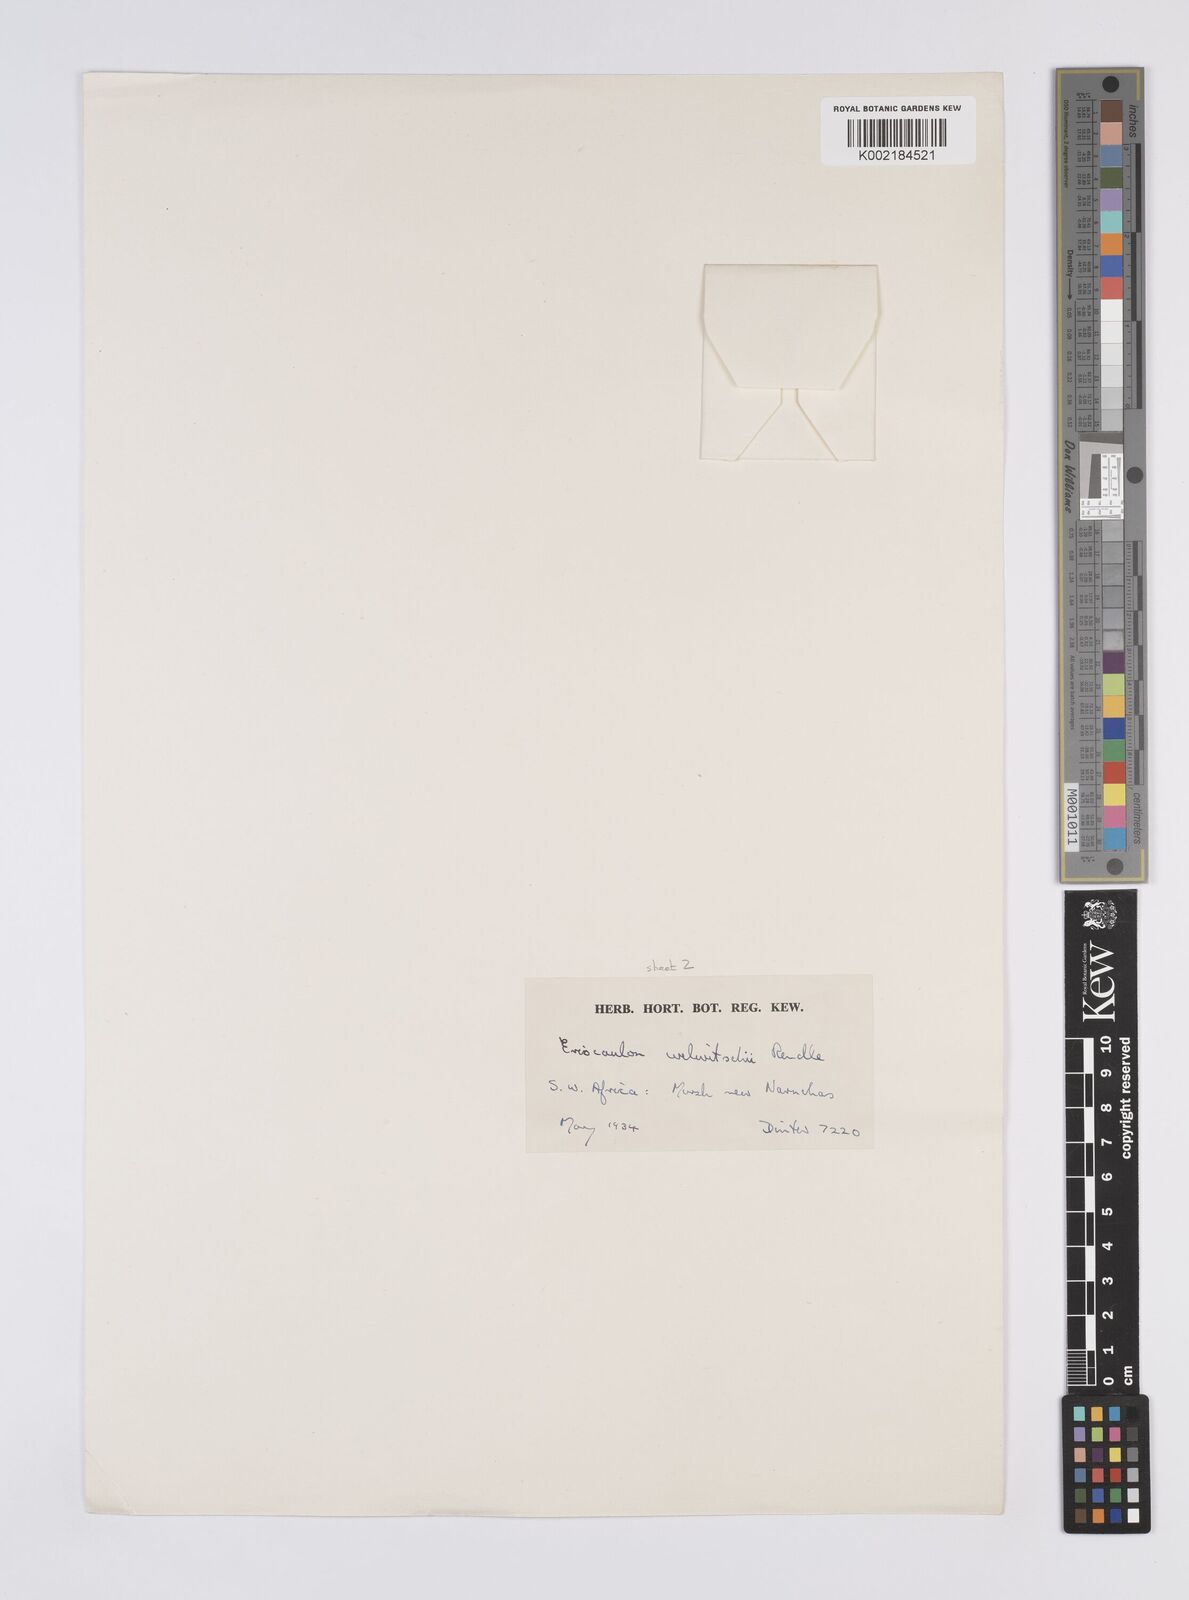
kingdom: Plantae
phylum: Tracheophyta
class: Liliopsida
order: Poales
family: Eriocaulaceae
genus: Eriocaulon
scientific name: Eriocaulon welwitschii
